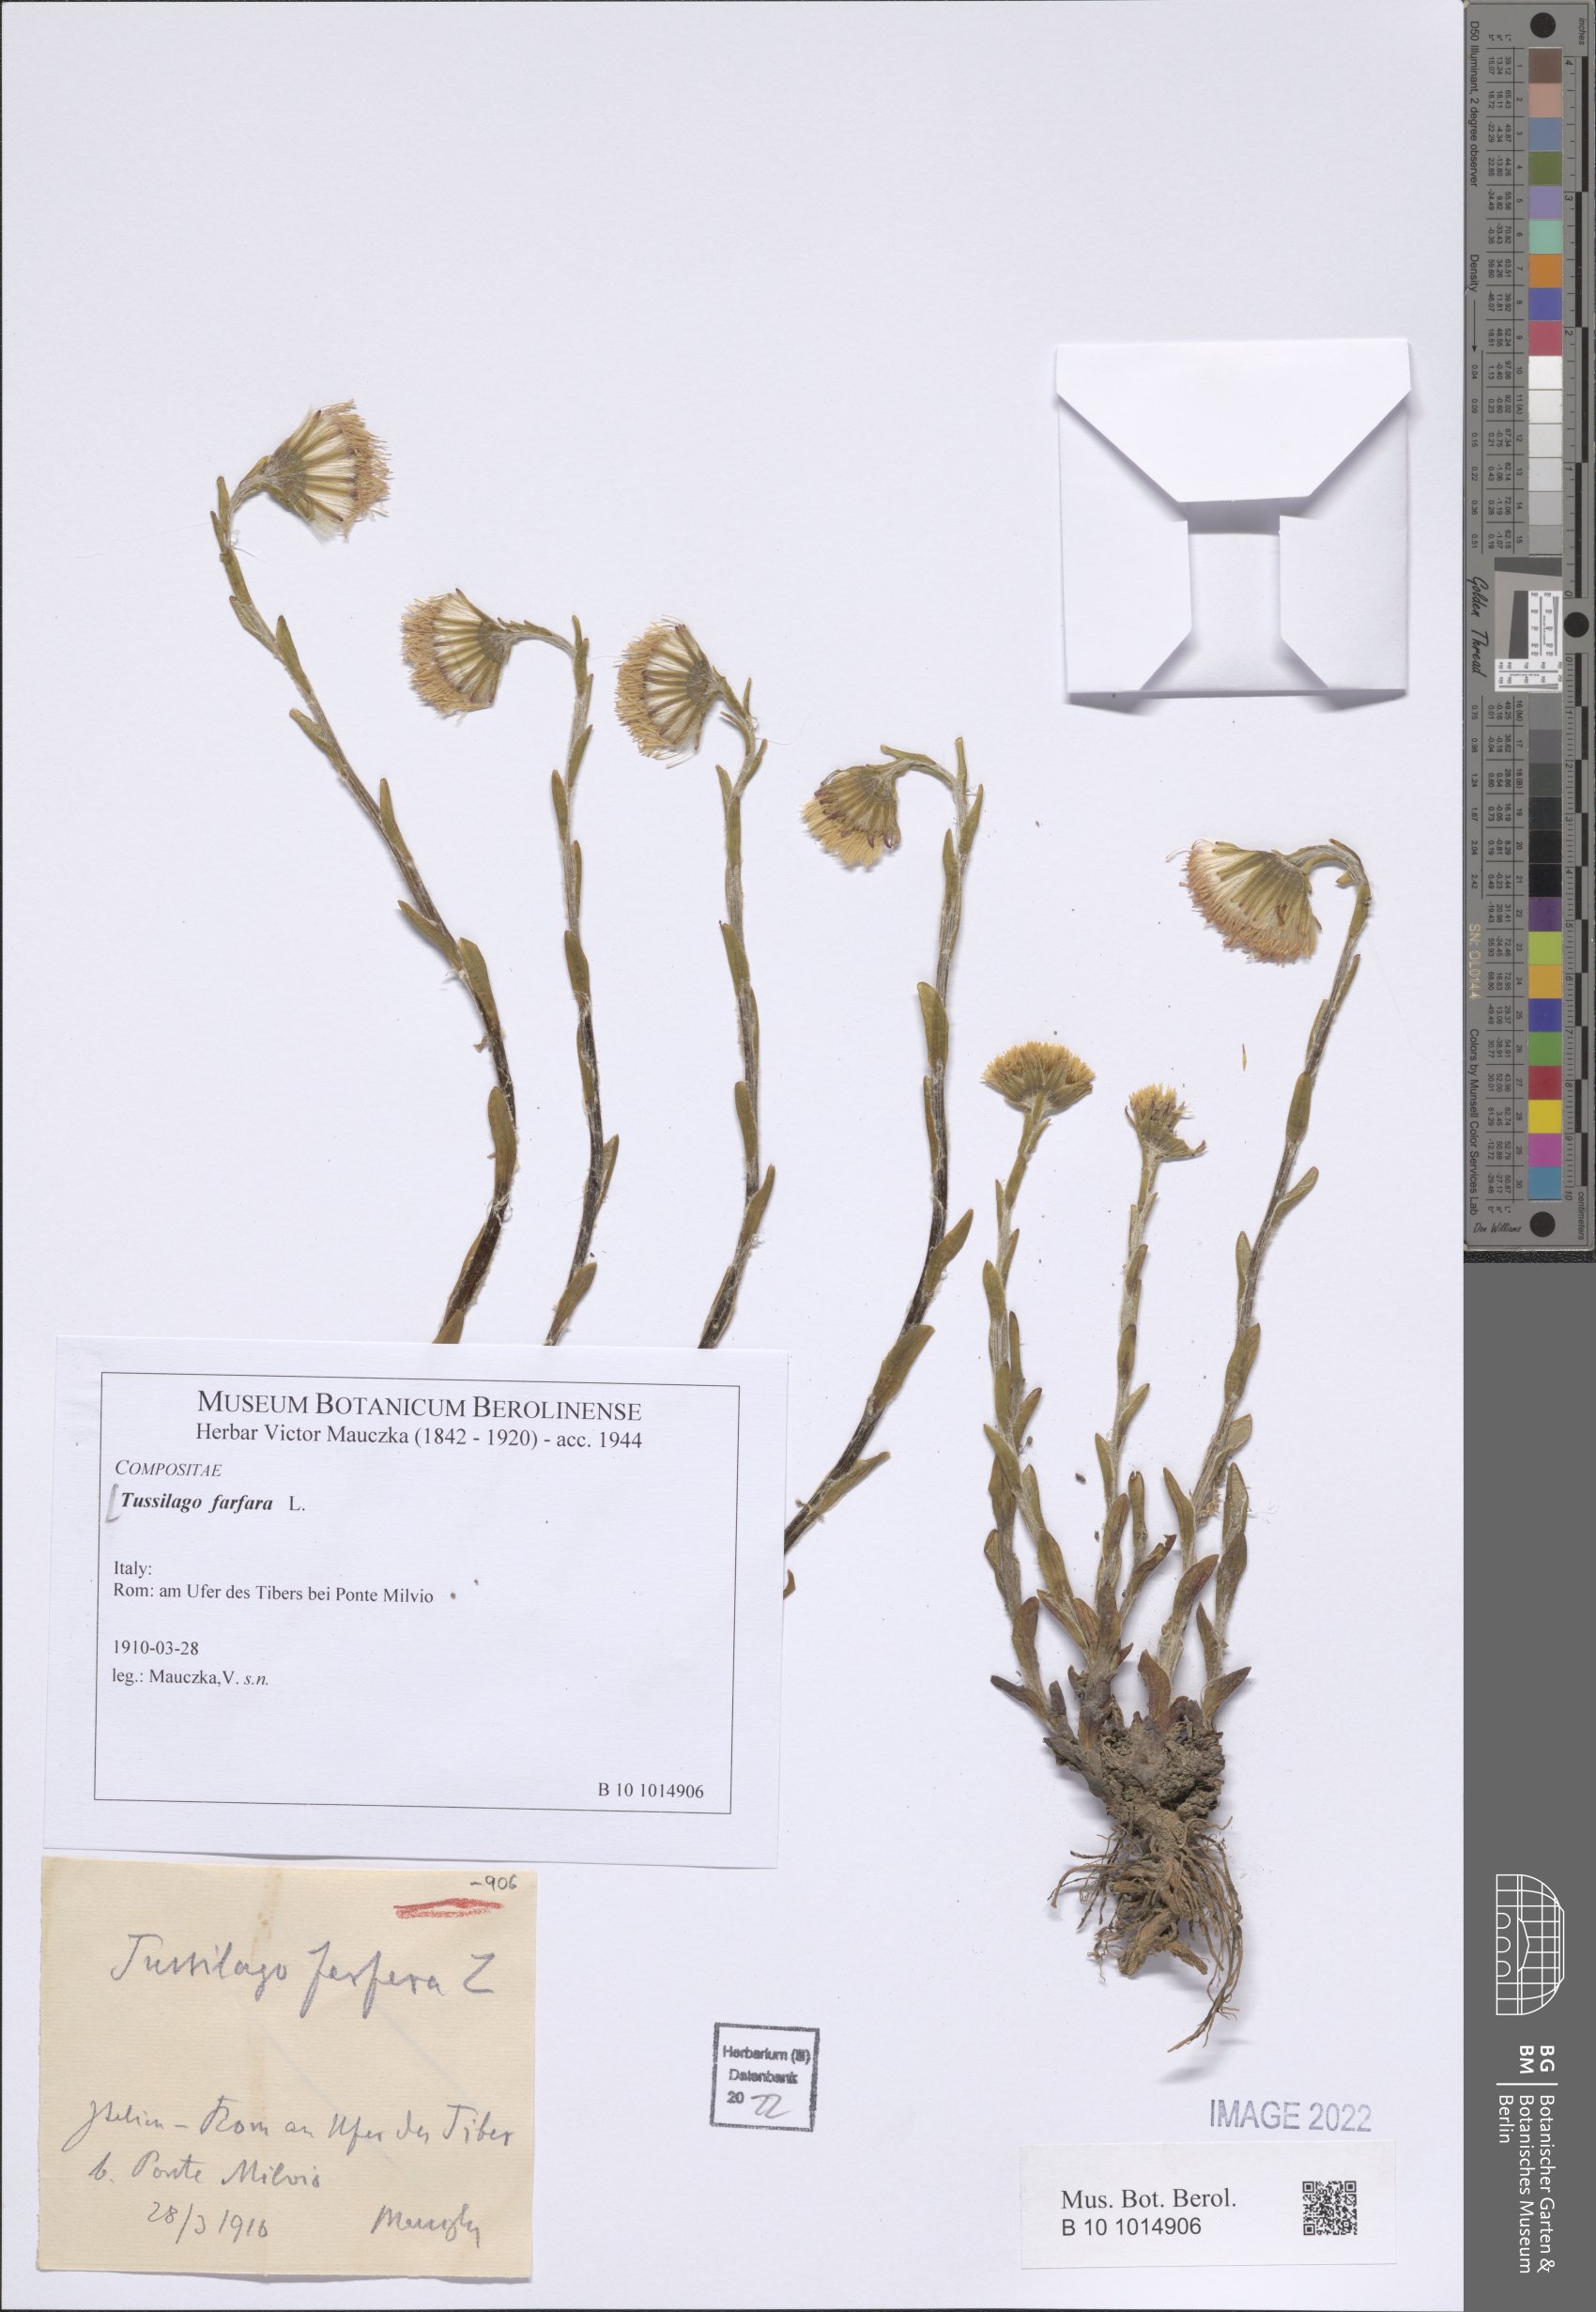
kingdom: Plantae
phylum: Tracheophyta
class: Magnoliopsida
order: Asterales
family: Asteraceae
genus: Tussilago
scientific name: Tussilago farfara
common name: Coltsfoot
